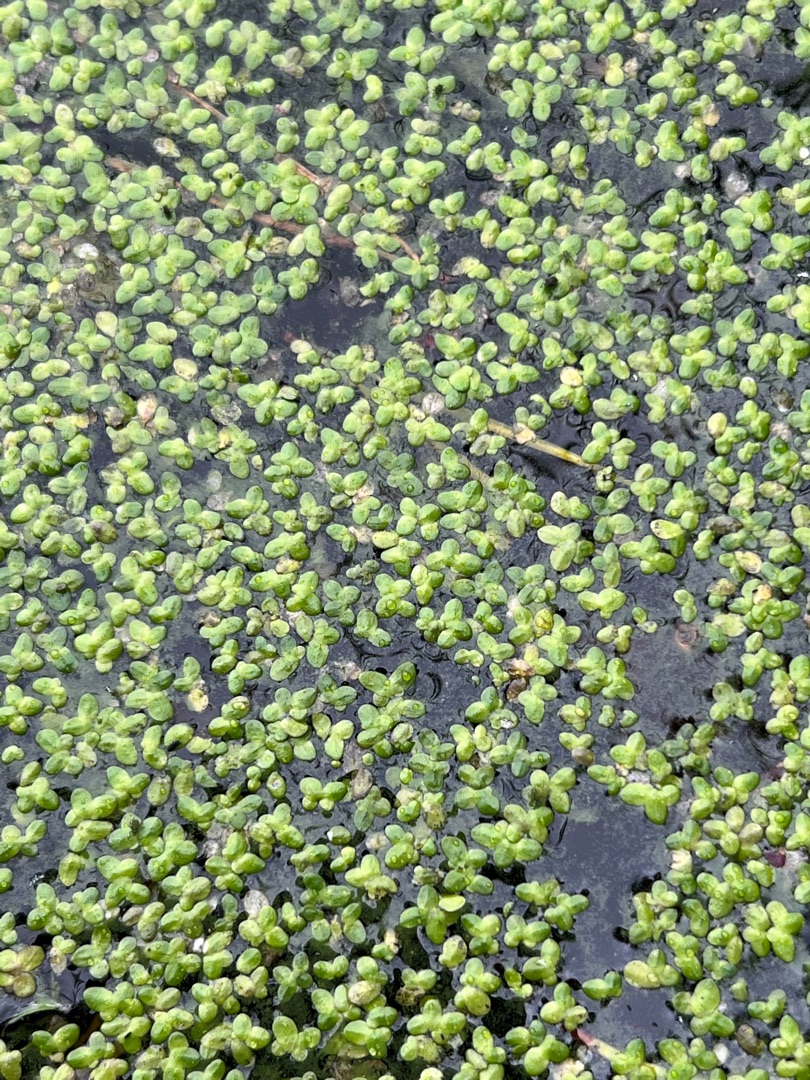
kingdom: Plantae
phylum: Tracheophyta
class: Liliopsida
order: Alismatales
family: Araceae
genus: Lemna
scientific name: Lemna minor
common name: Liden andemad
